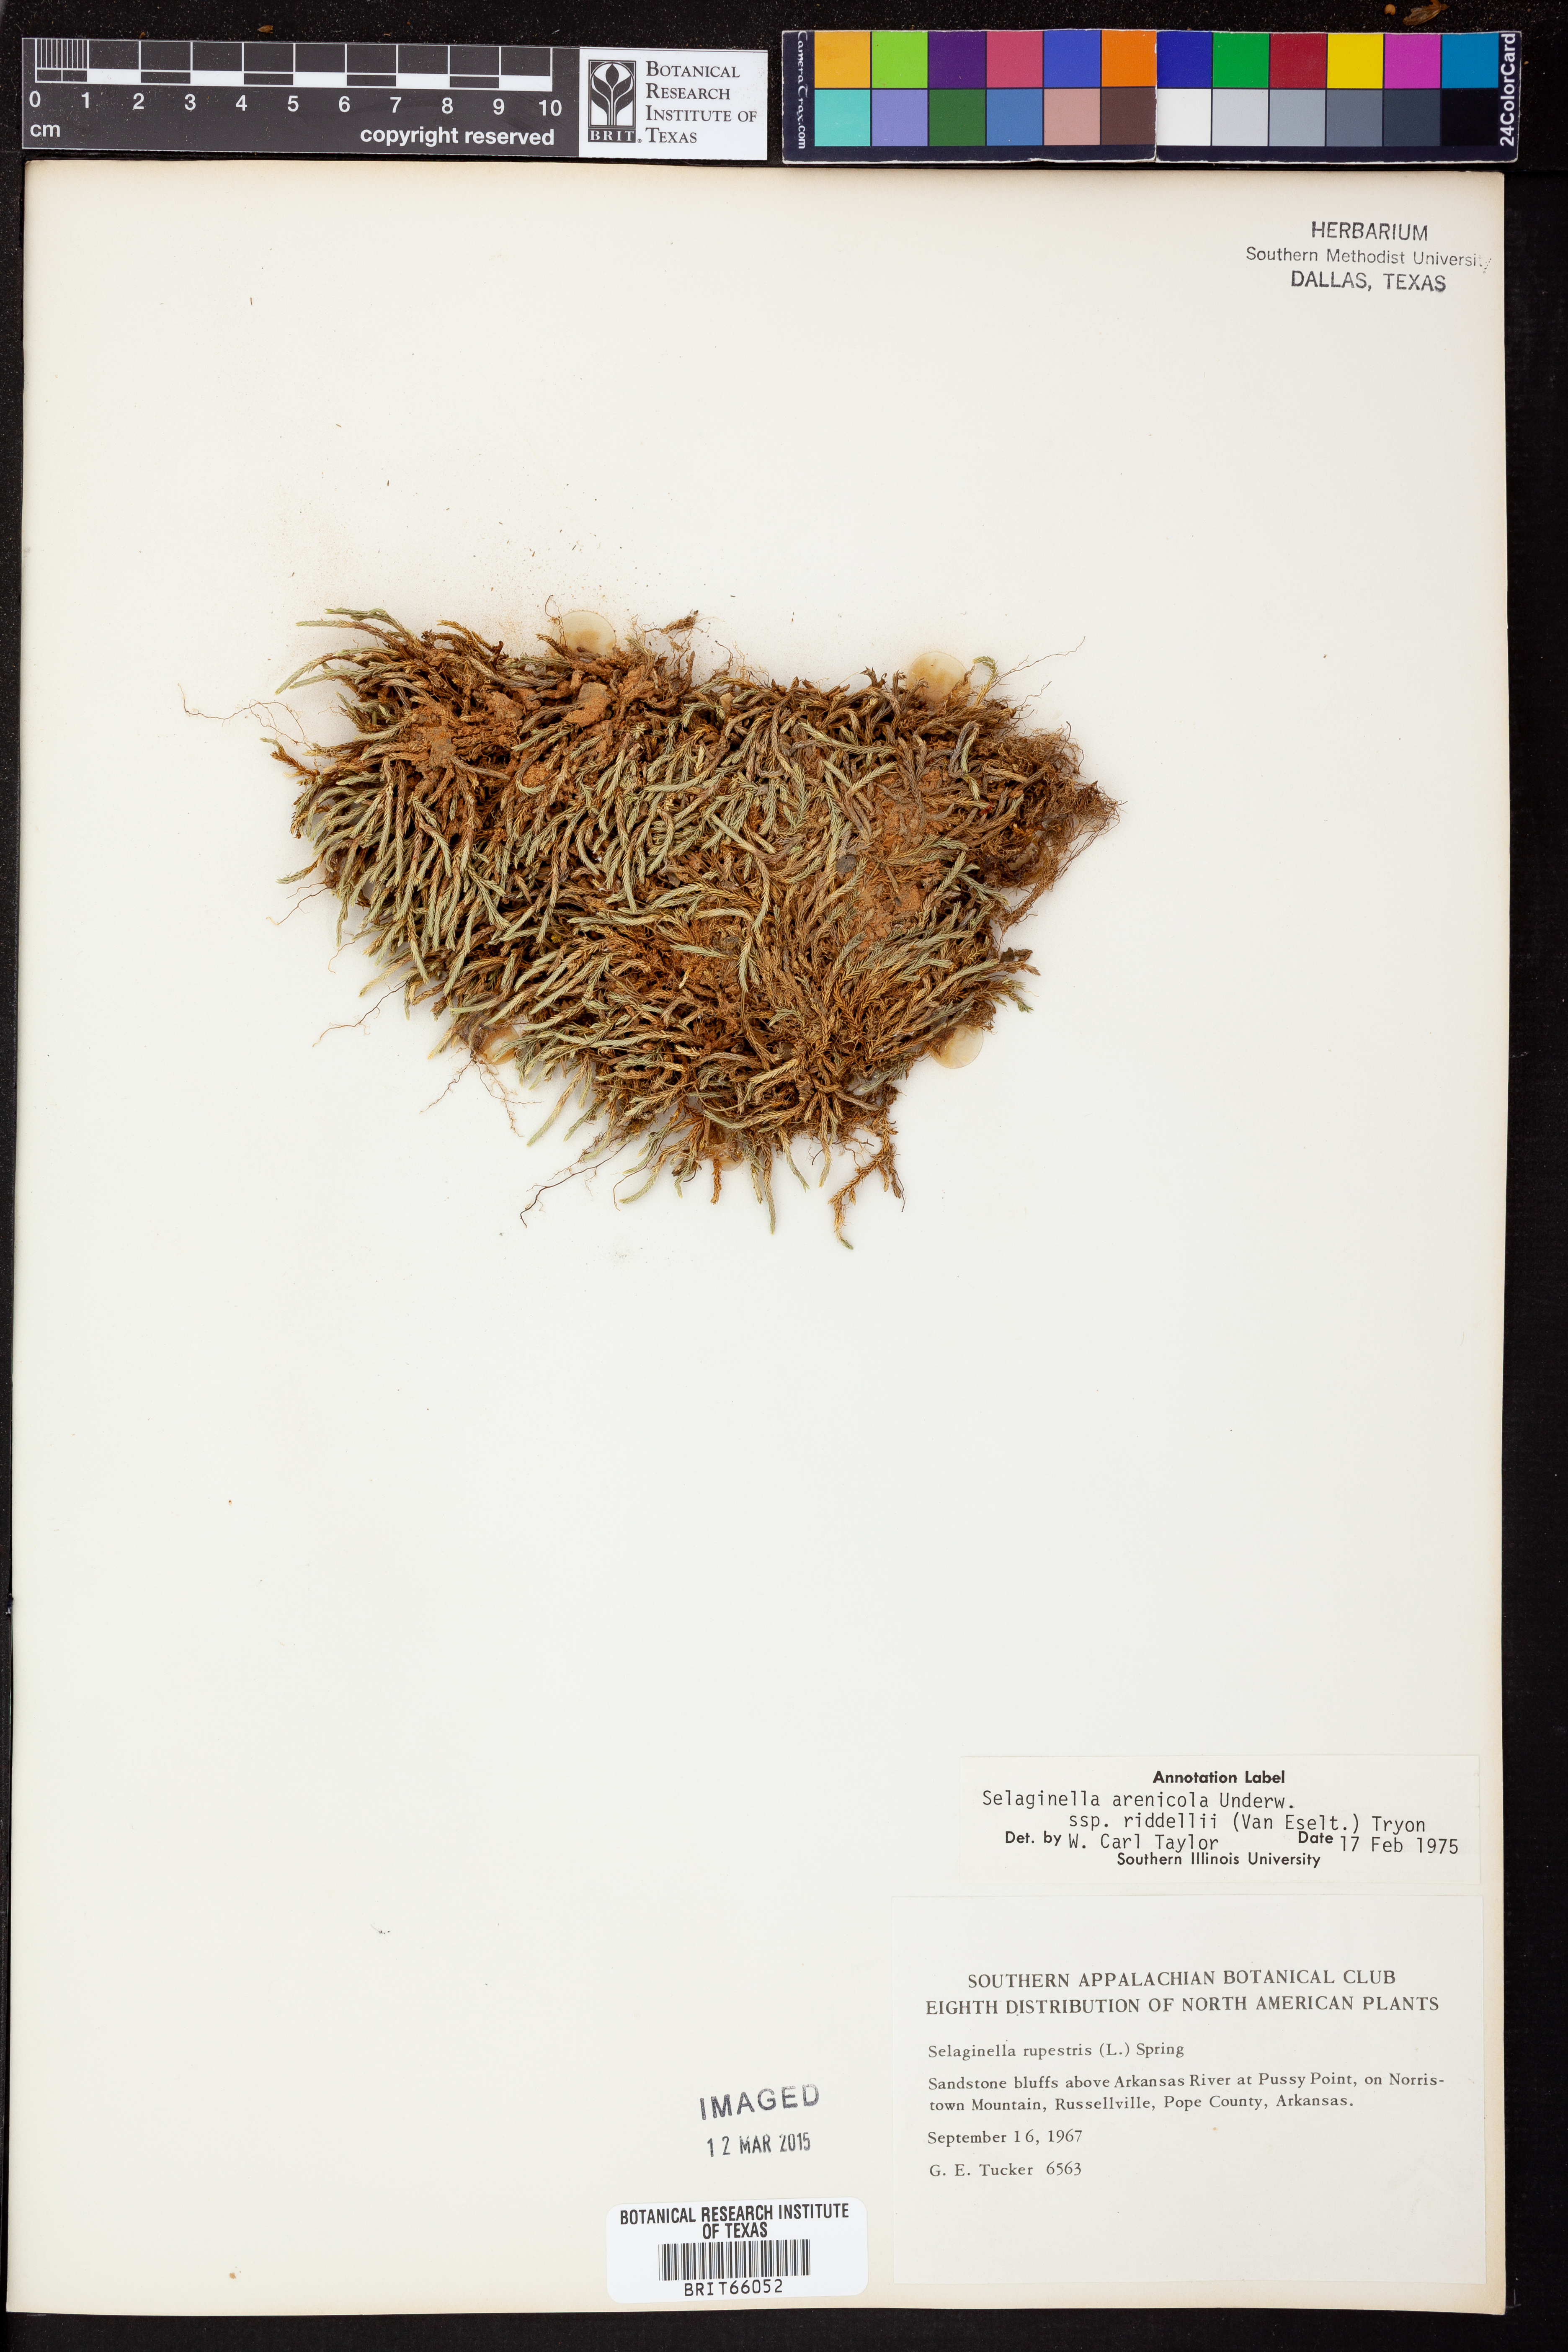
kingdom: Plantae
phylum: Tracheophyta
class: Lycopodiopsida
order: Selaginellales
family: Selaginellaceae
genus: Selaginella
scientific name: Selaginella corallina
